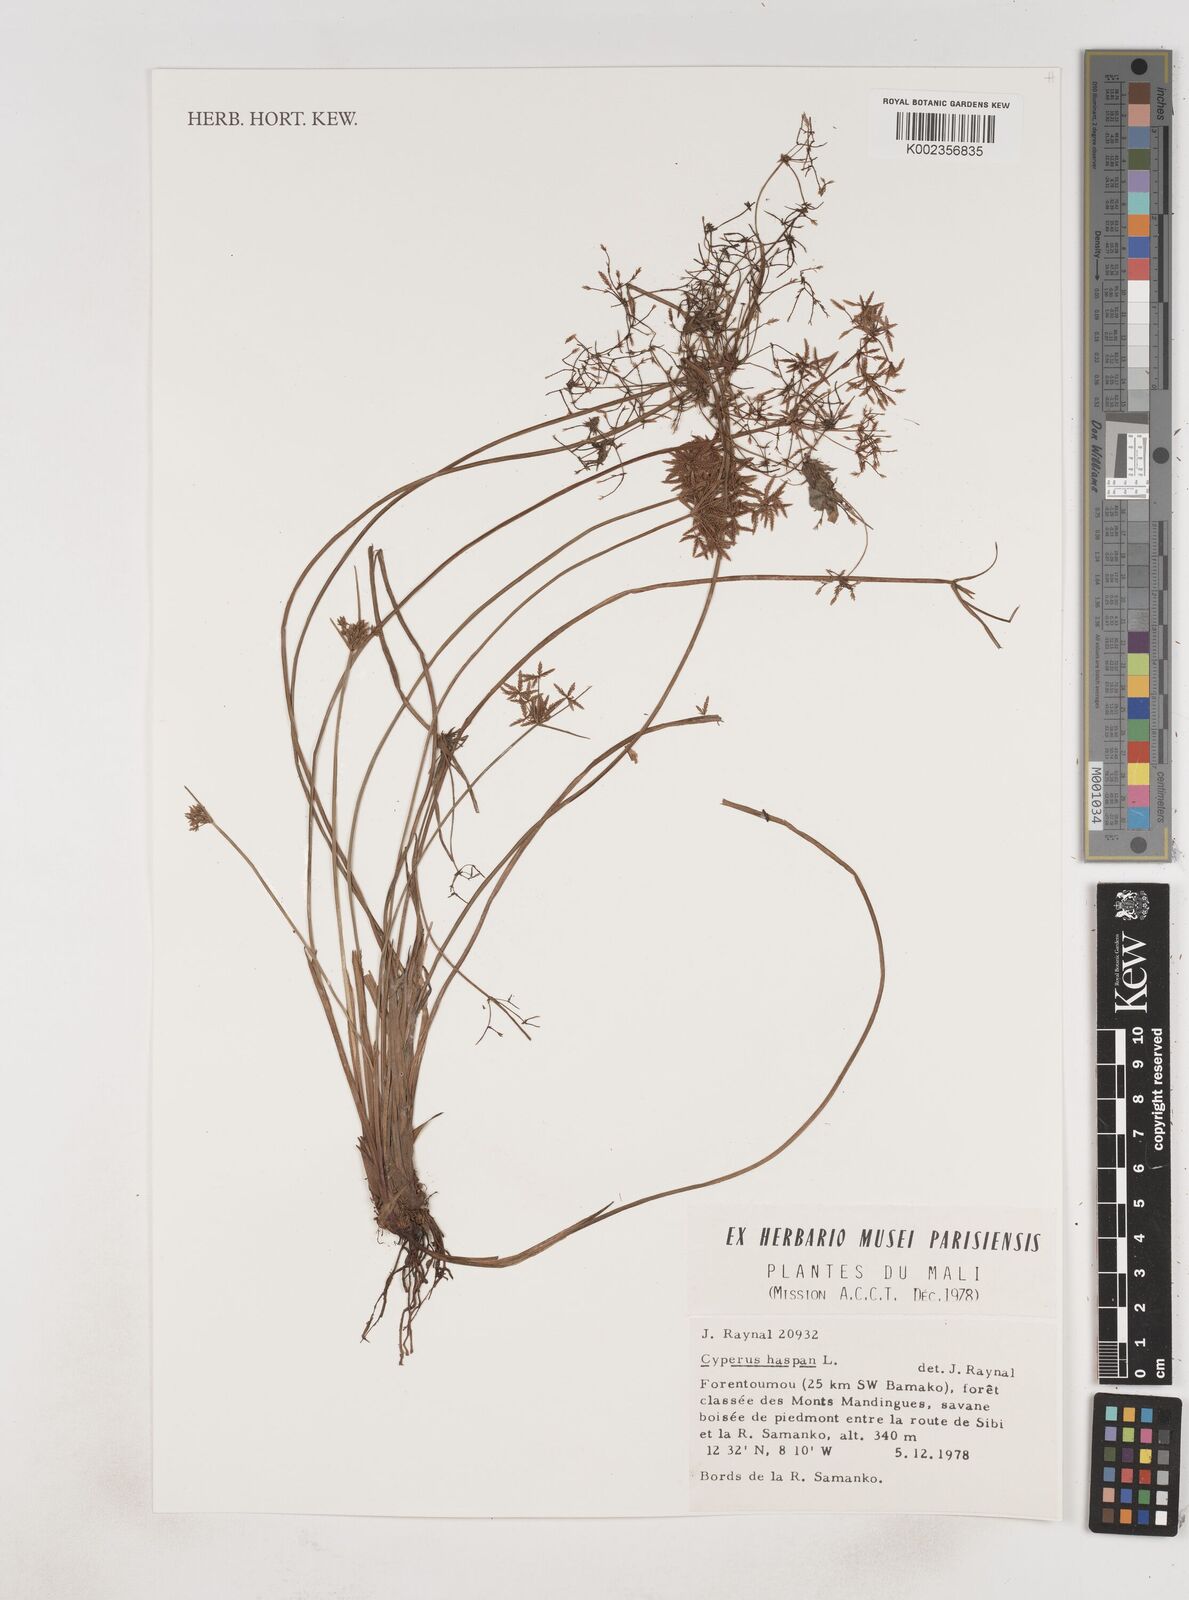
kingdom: Plantae
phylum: Tracheophyta
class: Liliopsida
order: Poales
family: Cyperaceae
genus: Cyperus
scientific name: Cyperus haspan
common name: Haspan flatsedge
